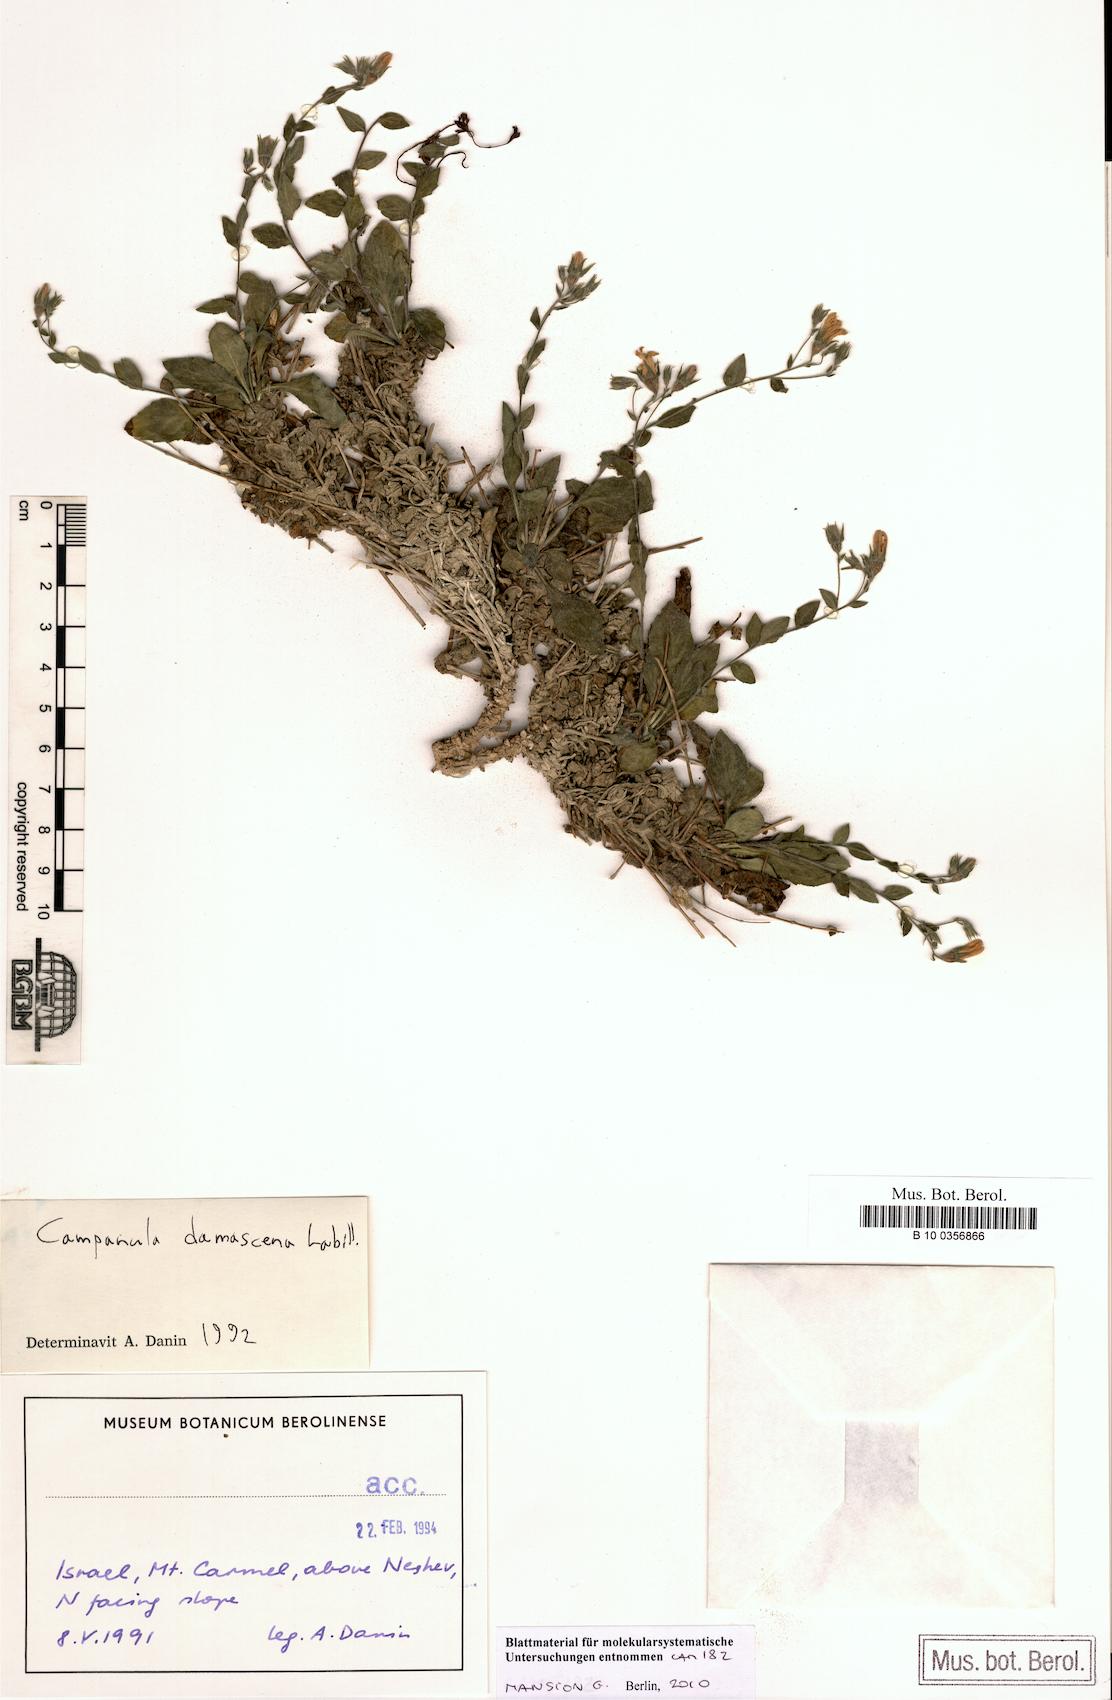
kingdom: Plantae
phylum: Tracheophyta
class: Magnoliopsida
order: Asterales
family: Campanulaceae
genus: Campanula
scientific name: Campanula damascena
